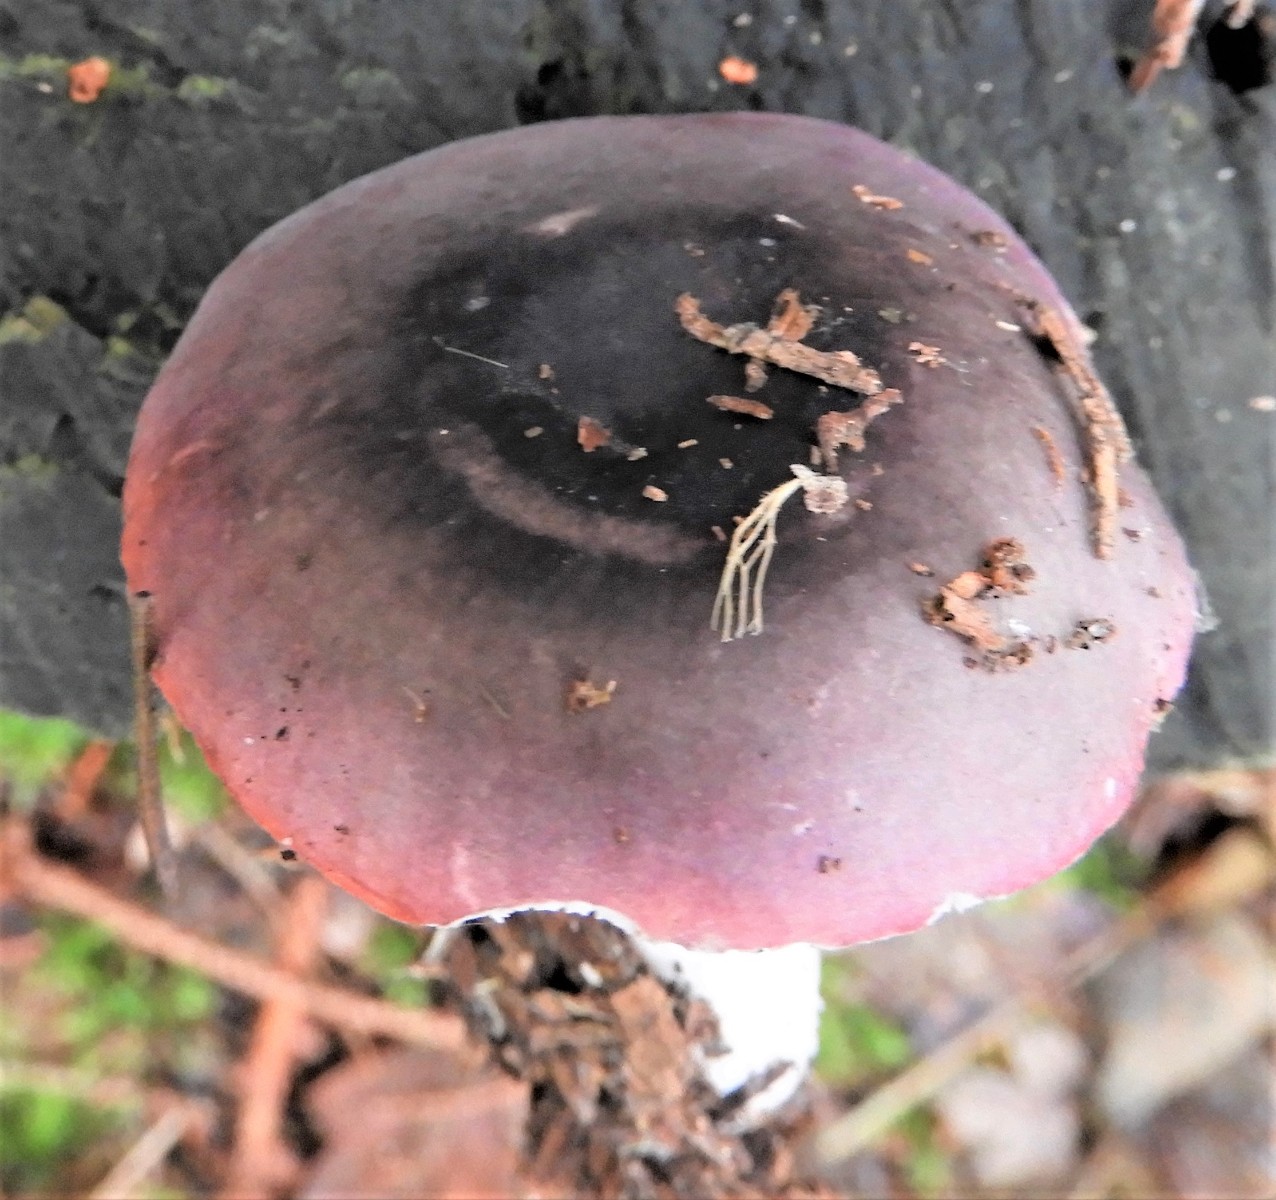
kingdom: Fungi
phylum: Basidiomycota
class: Agaricomycetes
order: Russulales
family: Russulaceae
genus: Russula
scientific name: Russula atrorubens
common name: sortrød skørhat
